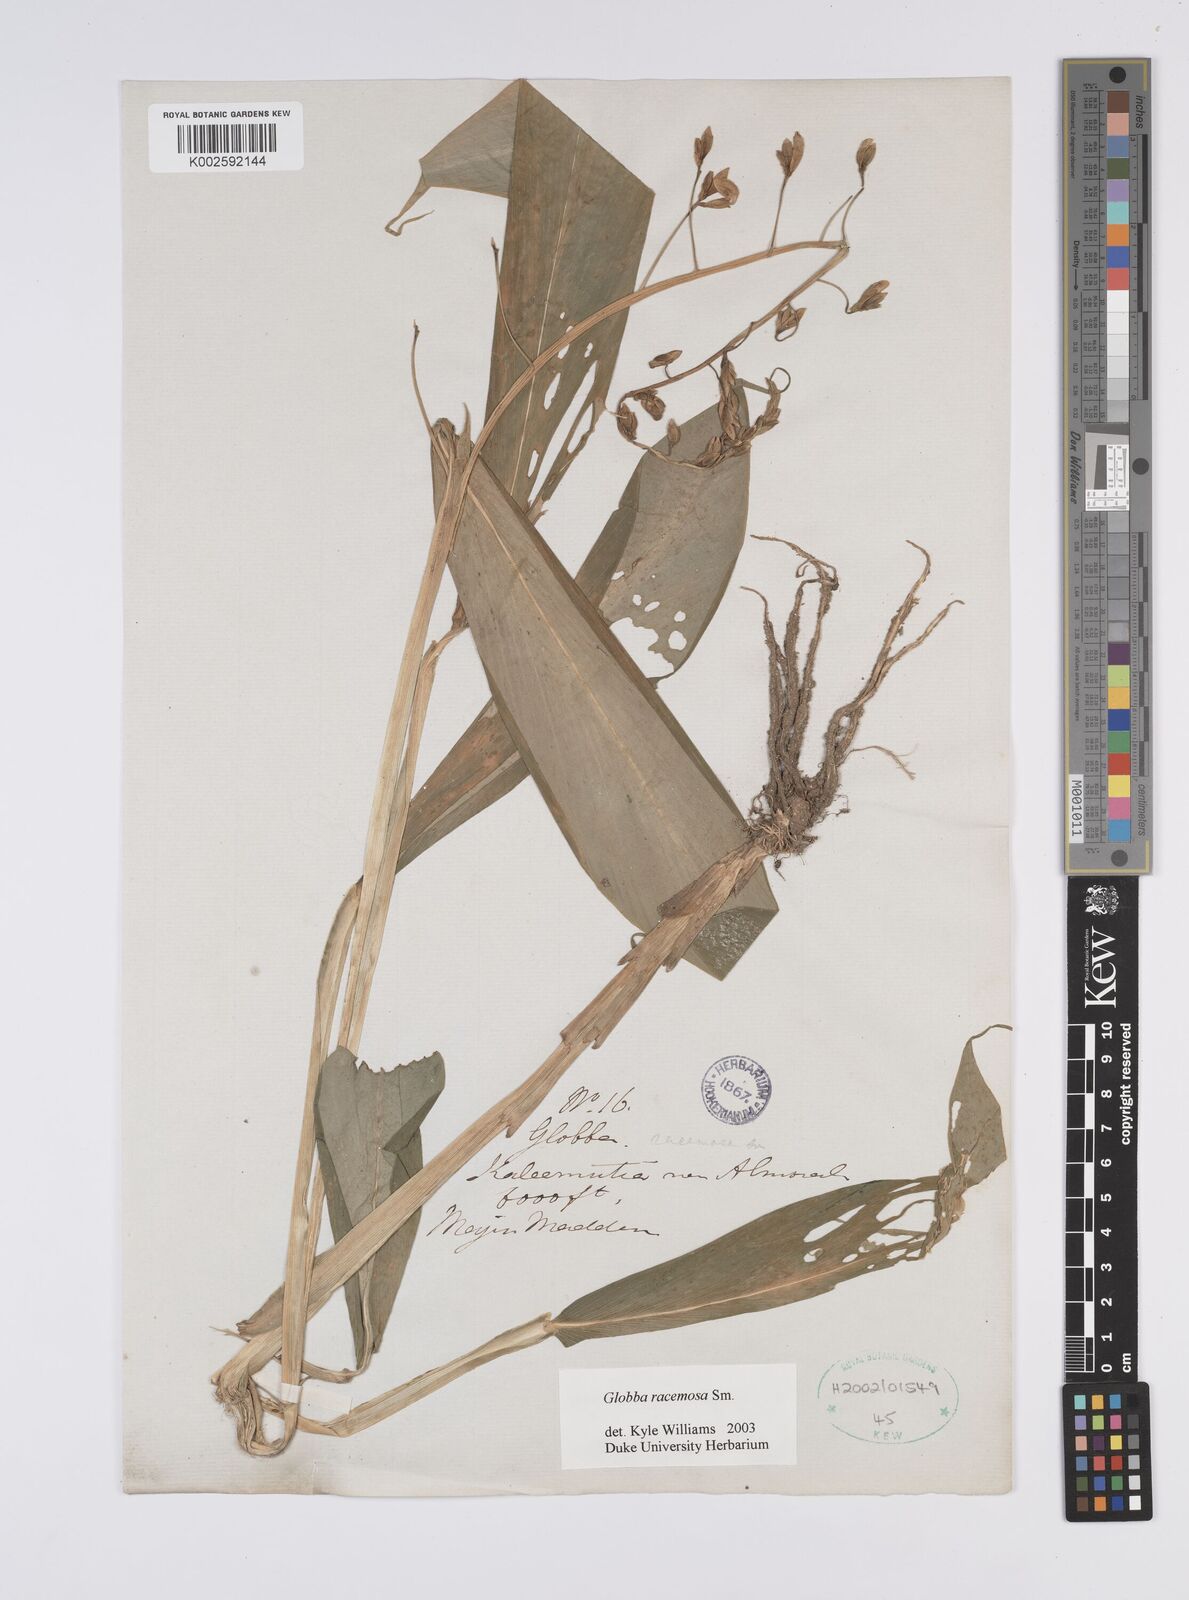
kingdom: Plantae
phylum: Tracheophyta
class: Liliopsida
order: Zingiberales
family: Zingiberaceae
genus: Globba
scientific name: Globba racemosa
